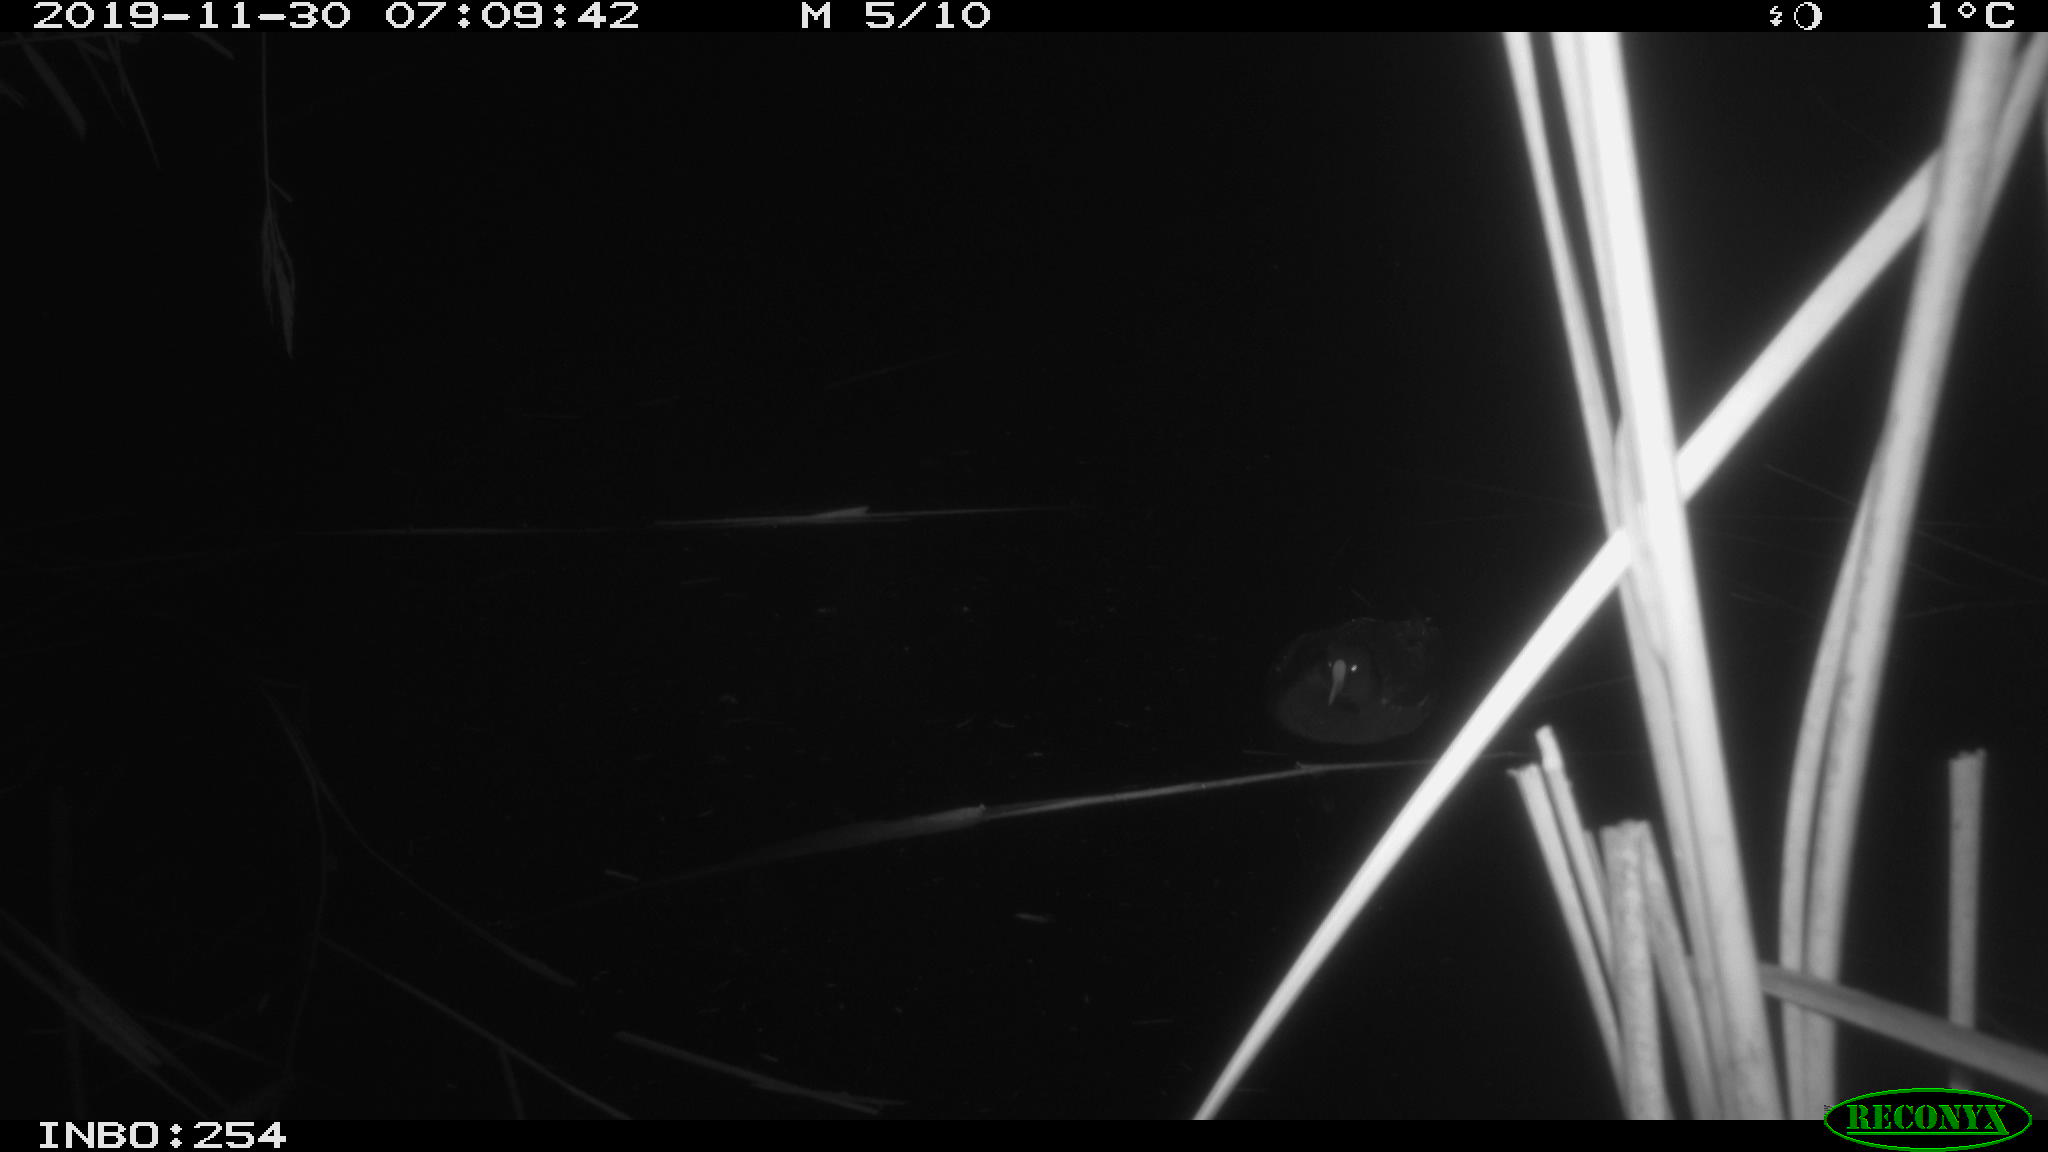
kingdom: Animalia
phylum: Chordata
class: Aves
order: Gruiformes
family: Rallidae
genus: Fulica
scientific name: Fulica atra
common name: Eurasian coot
